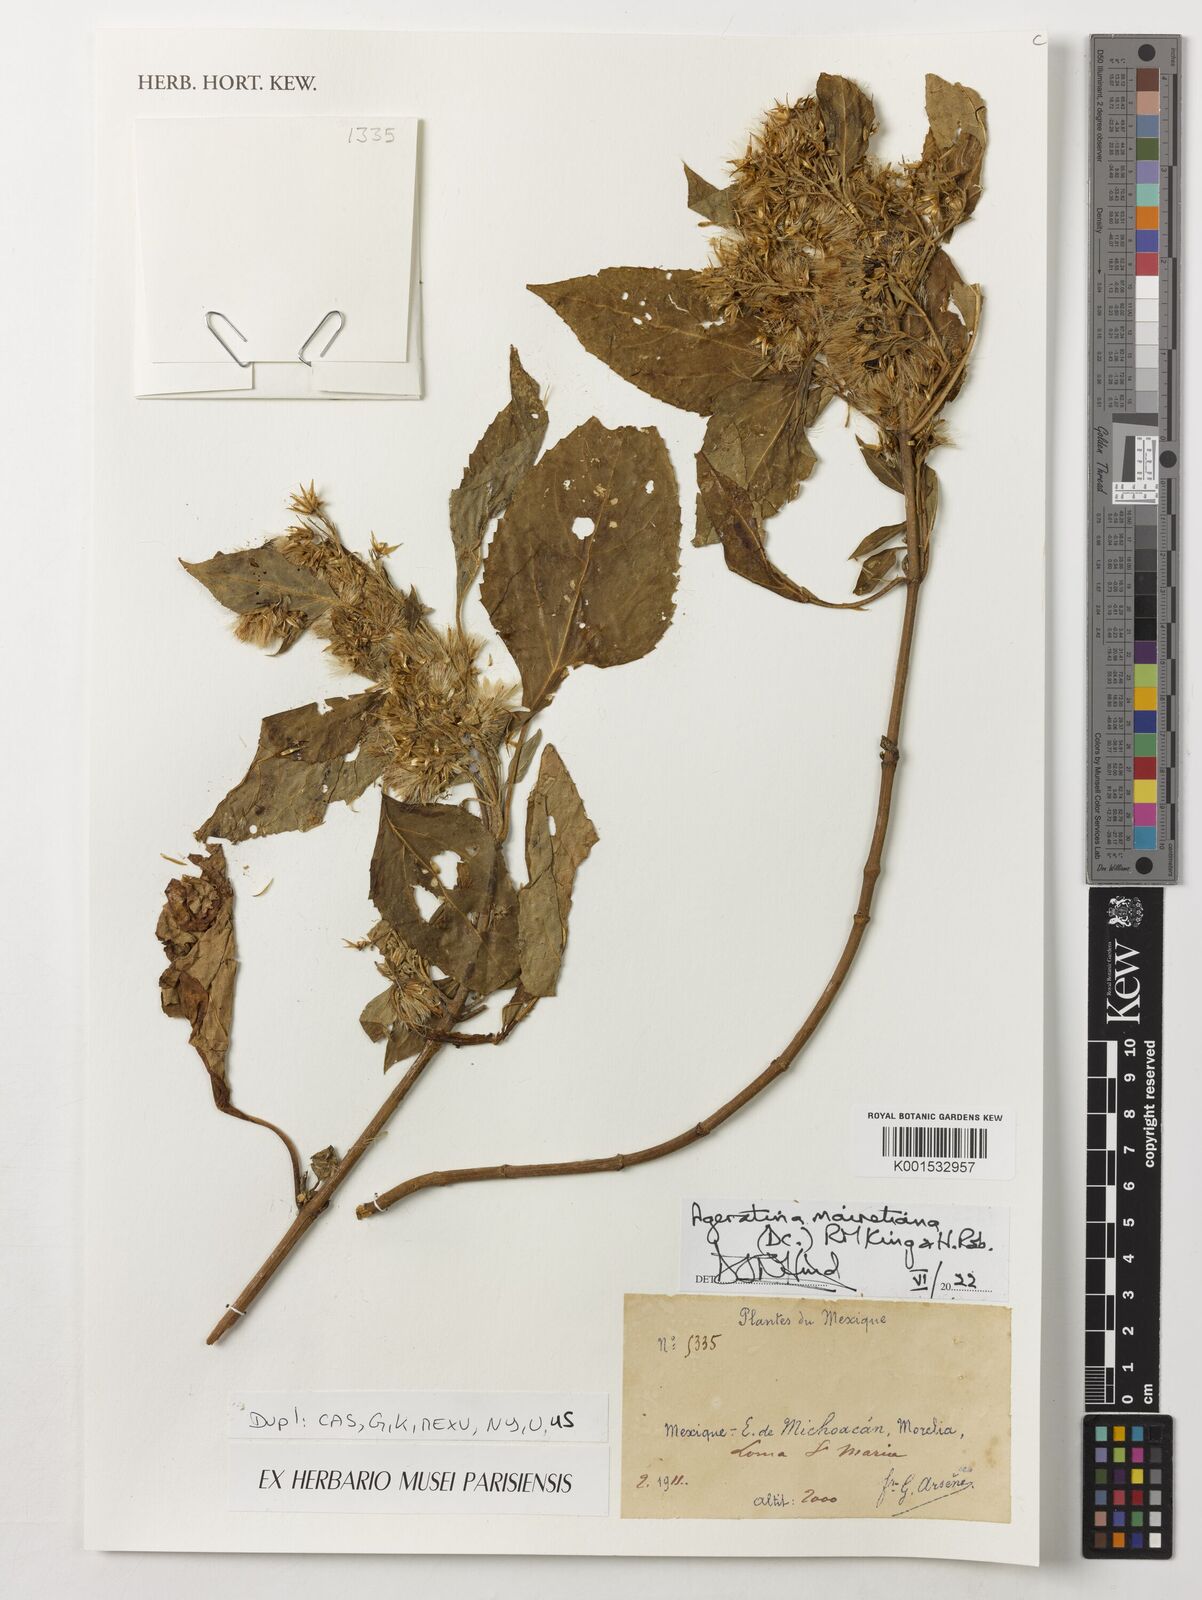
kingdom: Plantae
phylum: Tracheophyta
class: Magnoliopsida
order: Asterales
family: Asteraceae
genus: Ageratina
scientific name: Ageratina mairetiana
